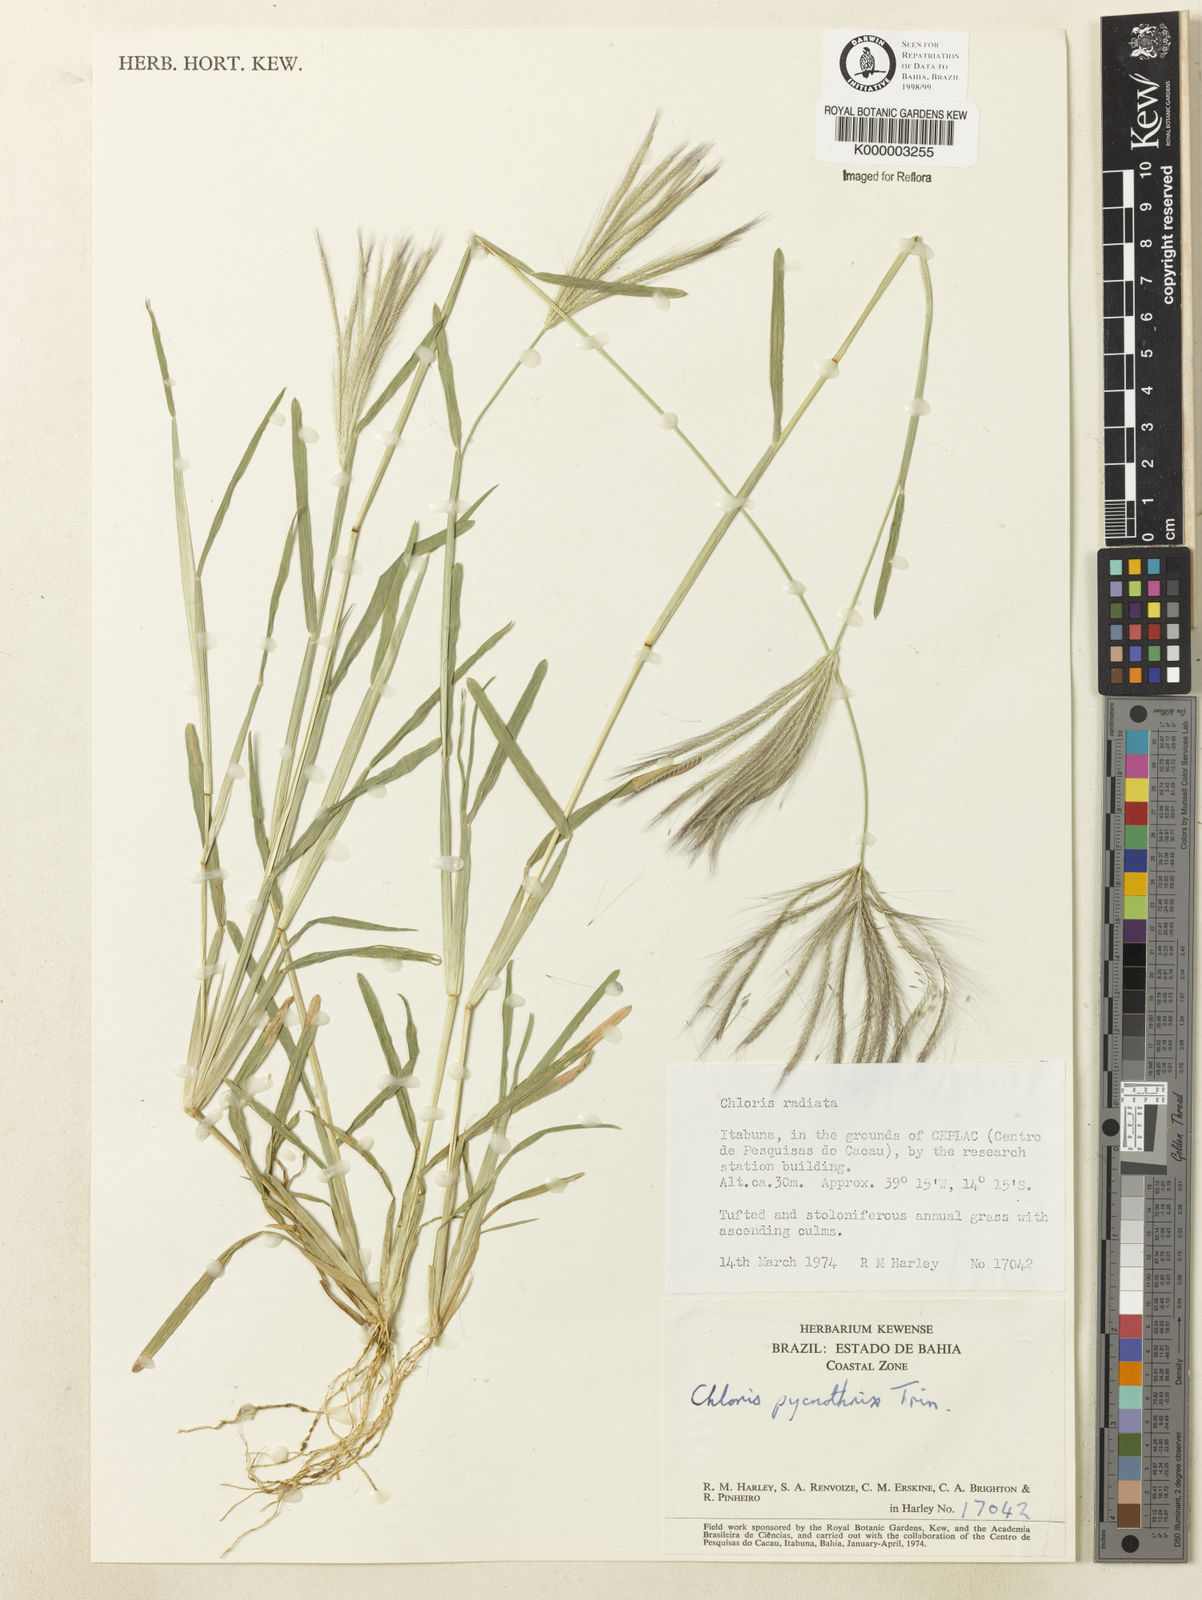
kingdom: Plantae
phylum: Tracheophyta
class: Liliopsida
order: Poales
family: Poaceae
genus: Chloris
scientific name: Chloris pycnothrix
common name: Spiderweb chloris
